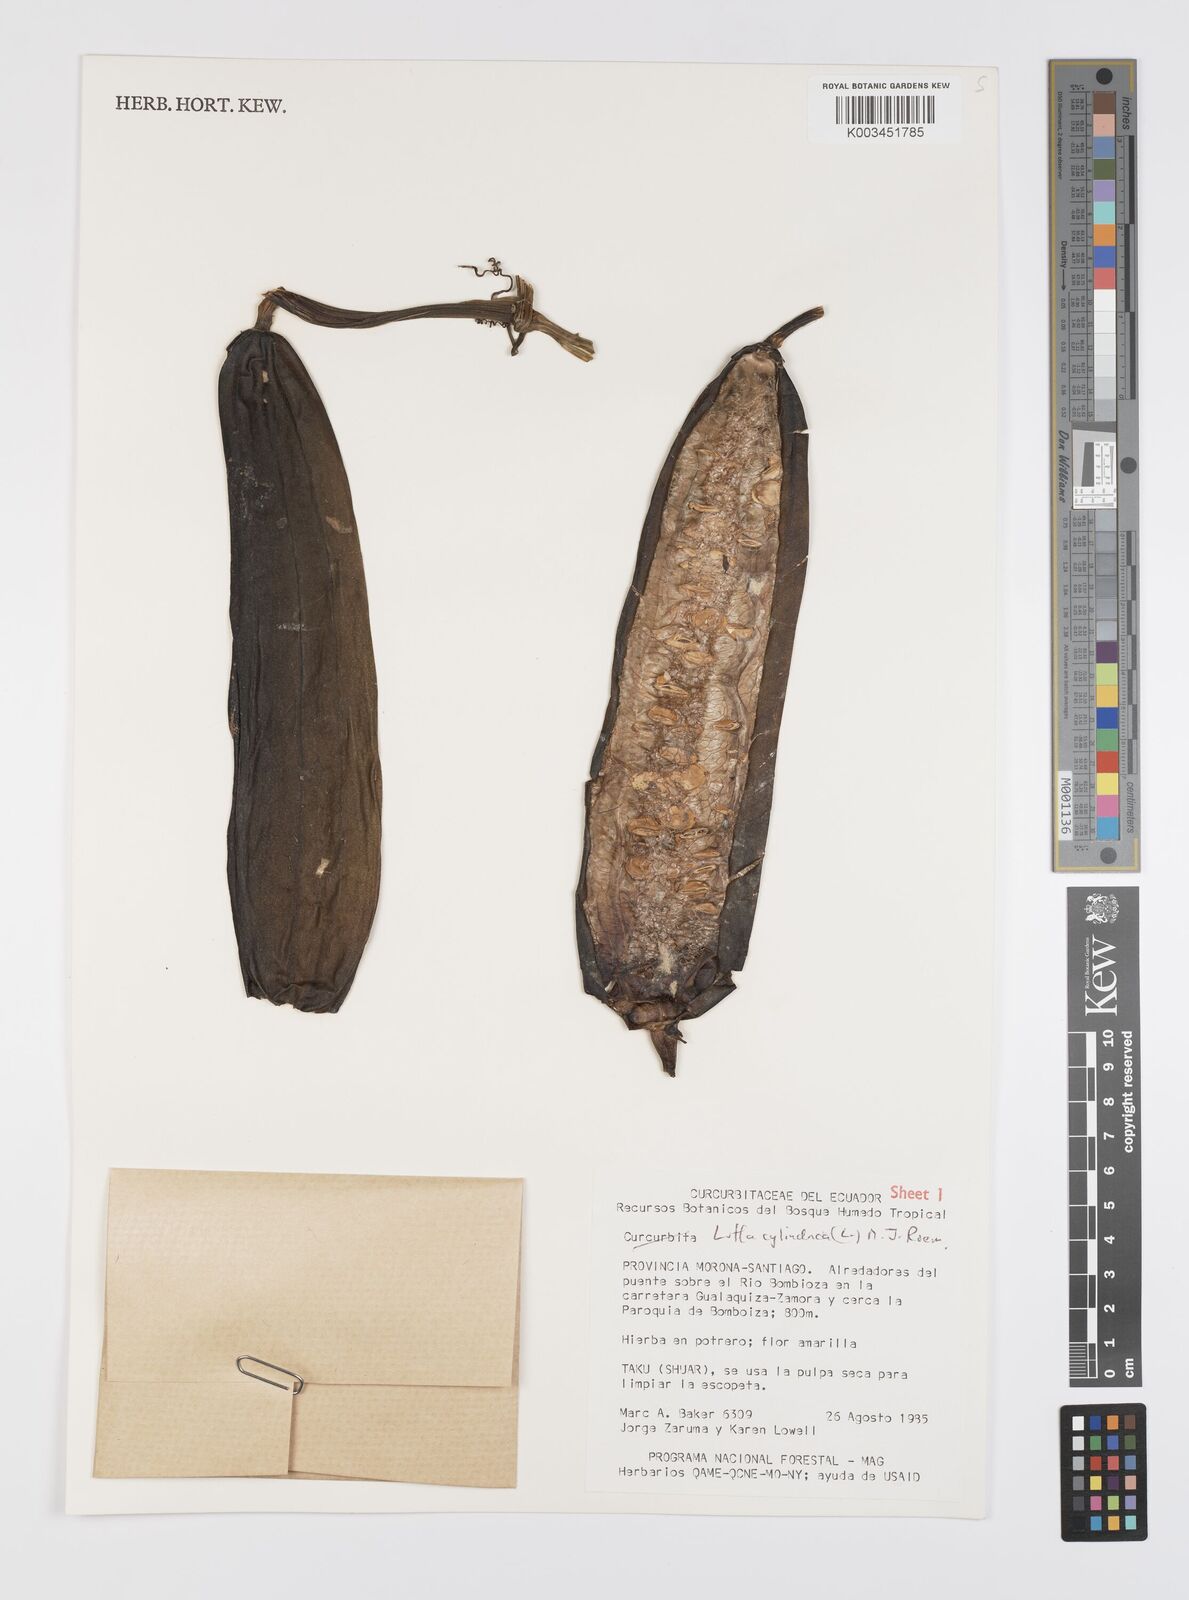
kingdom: Plantae
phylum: Tracheophyta
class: Magnoliopsida
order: Cucurbitales
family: Cucurbitaceae
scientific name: Cucurbitaceae
